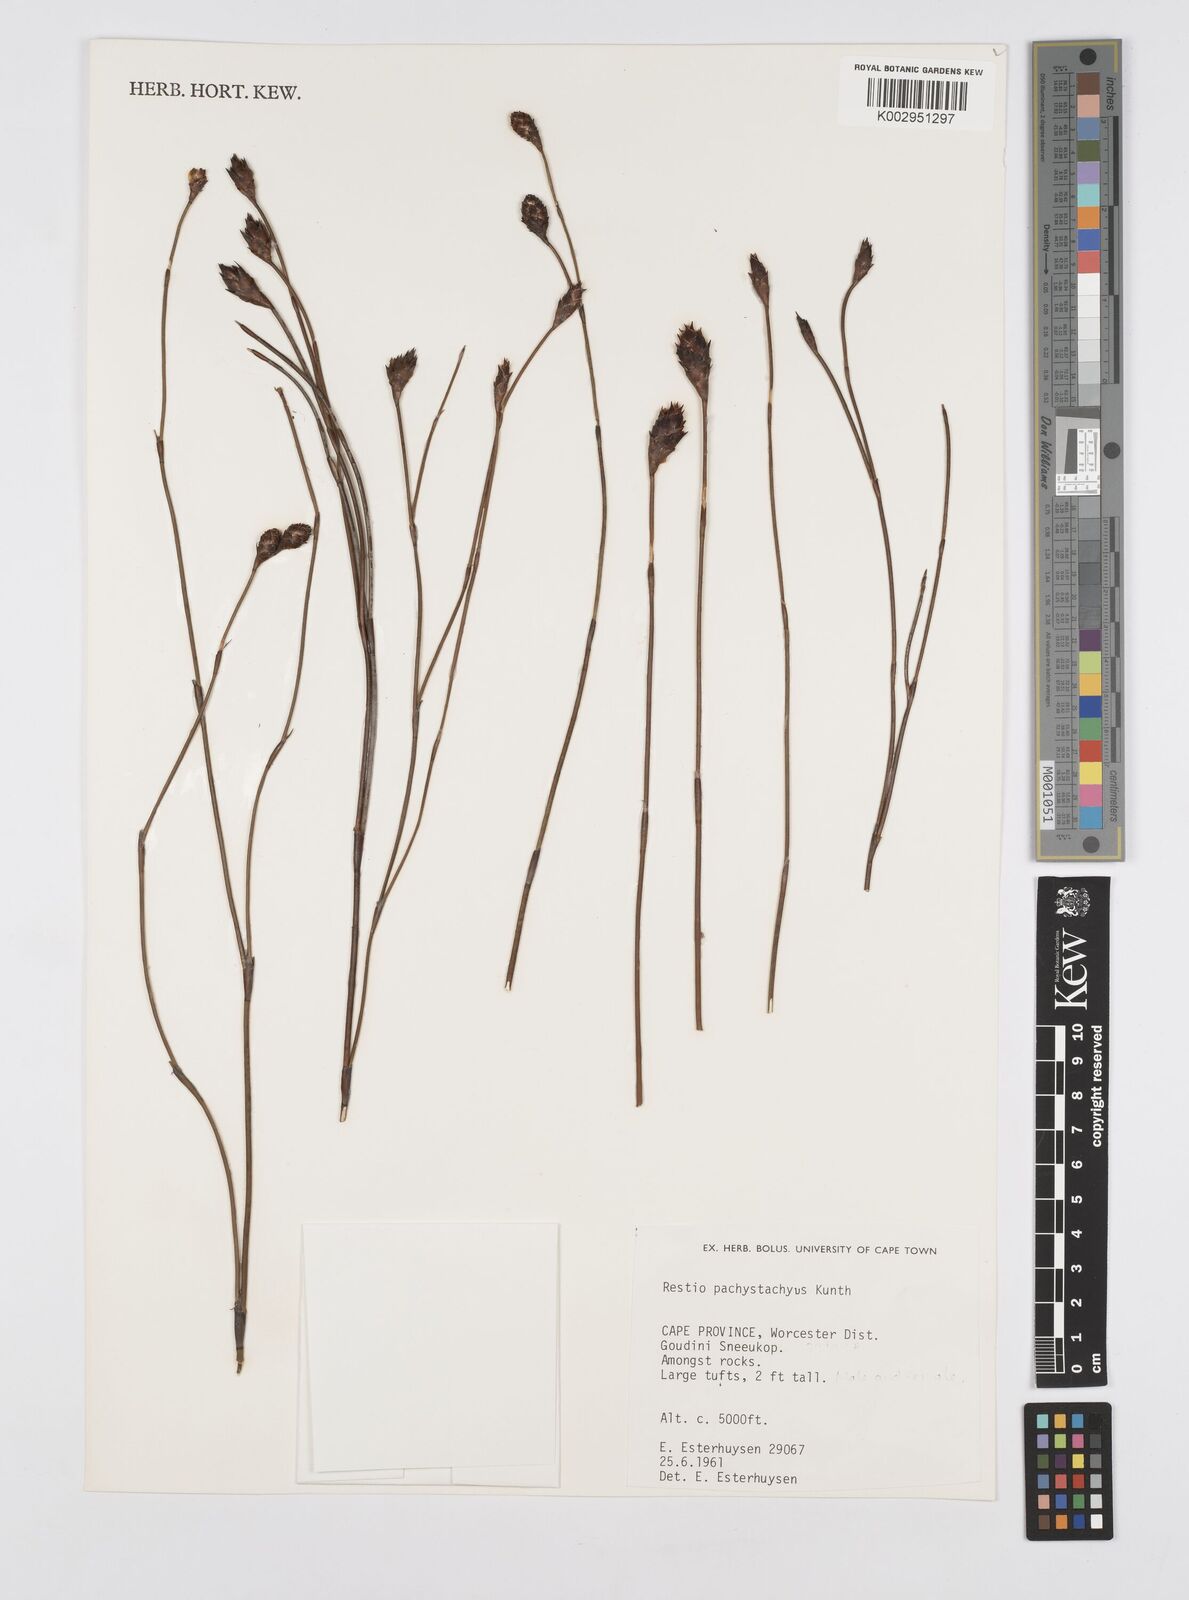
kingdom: Plantae
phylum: Tracheophyta
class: Liliopsida
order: Poales
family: Restionaceae
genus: Restio
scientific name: Restio pachystachyus
